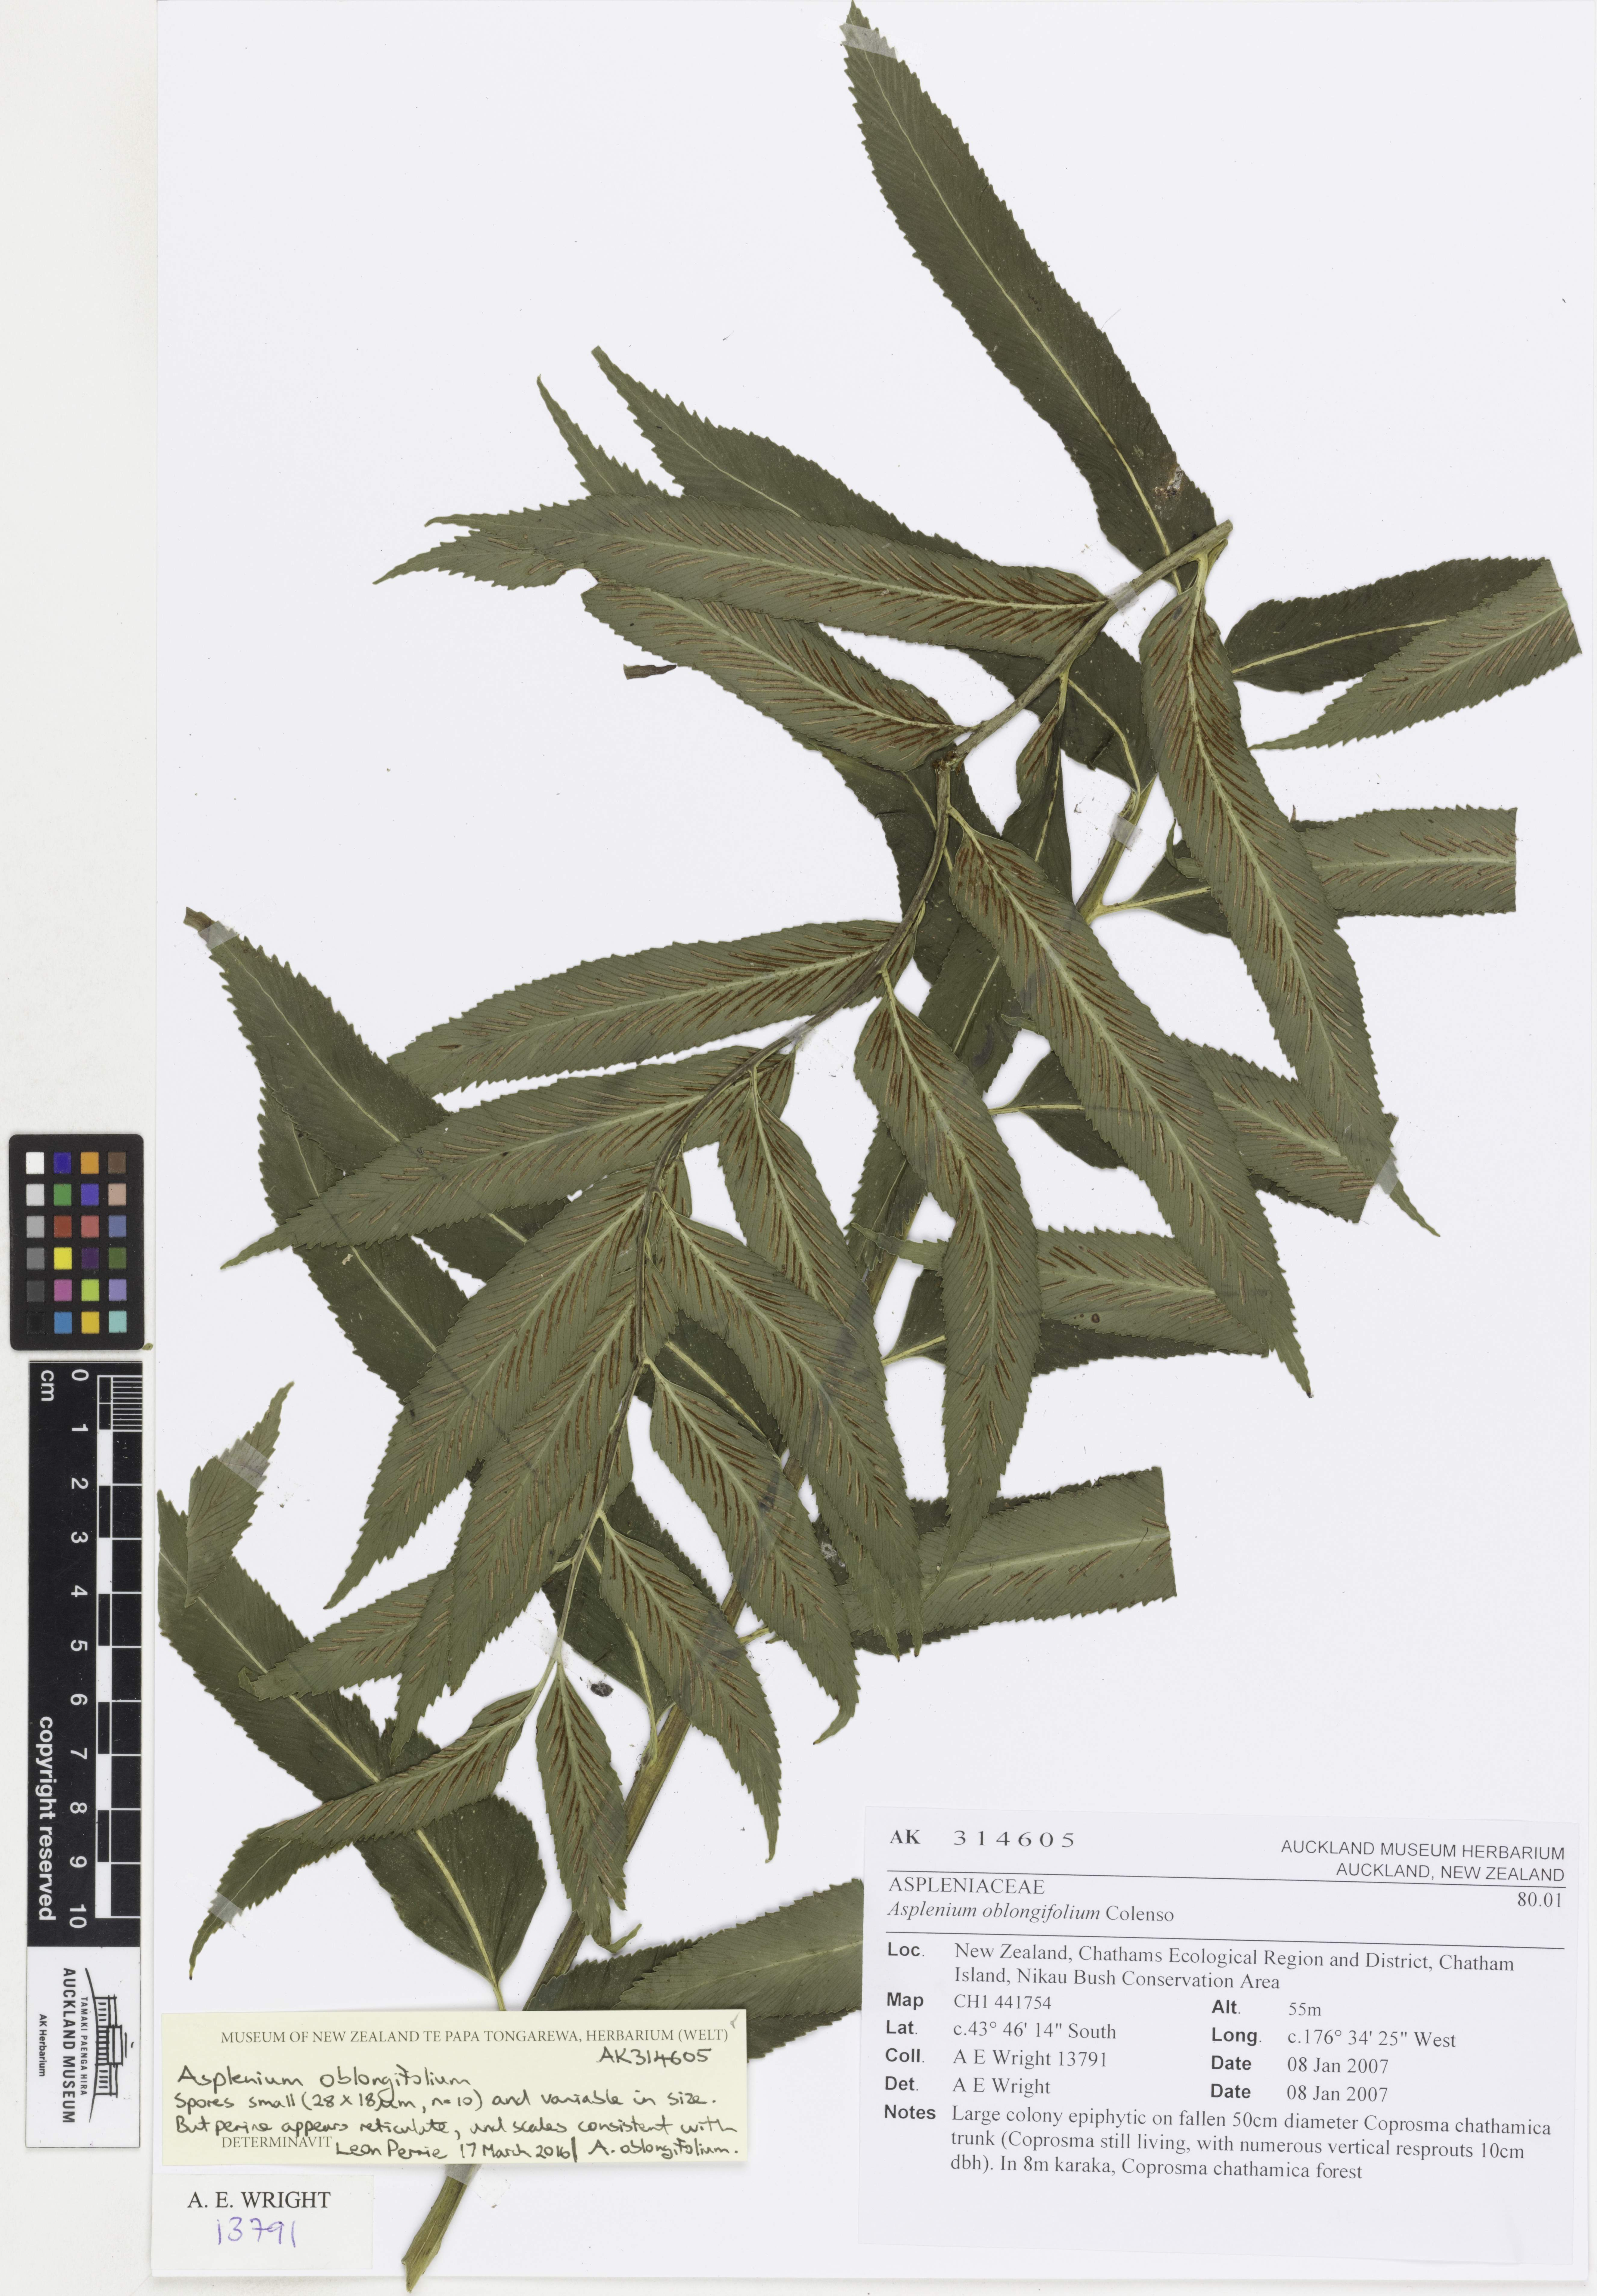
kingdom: Plantae
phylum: Tracheophyta
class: Polypodiopsida
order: Polypodiales
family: Aspleniaceae
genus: Asplenium
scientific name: Asplenium oblongifolium
